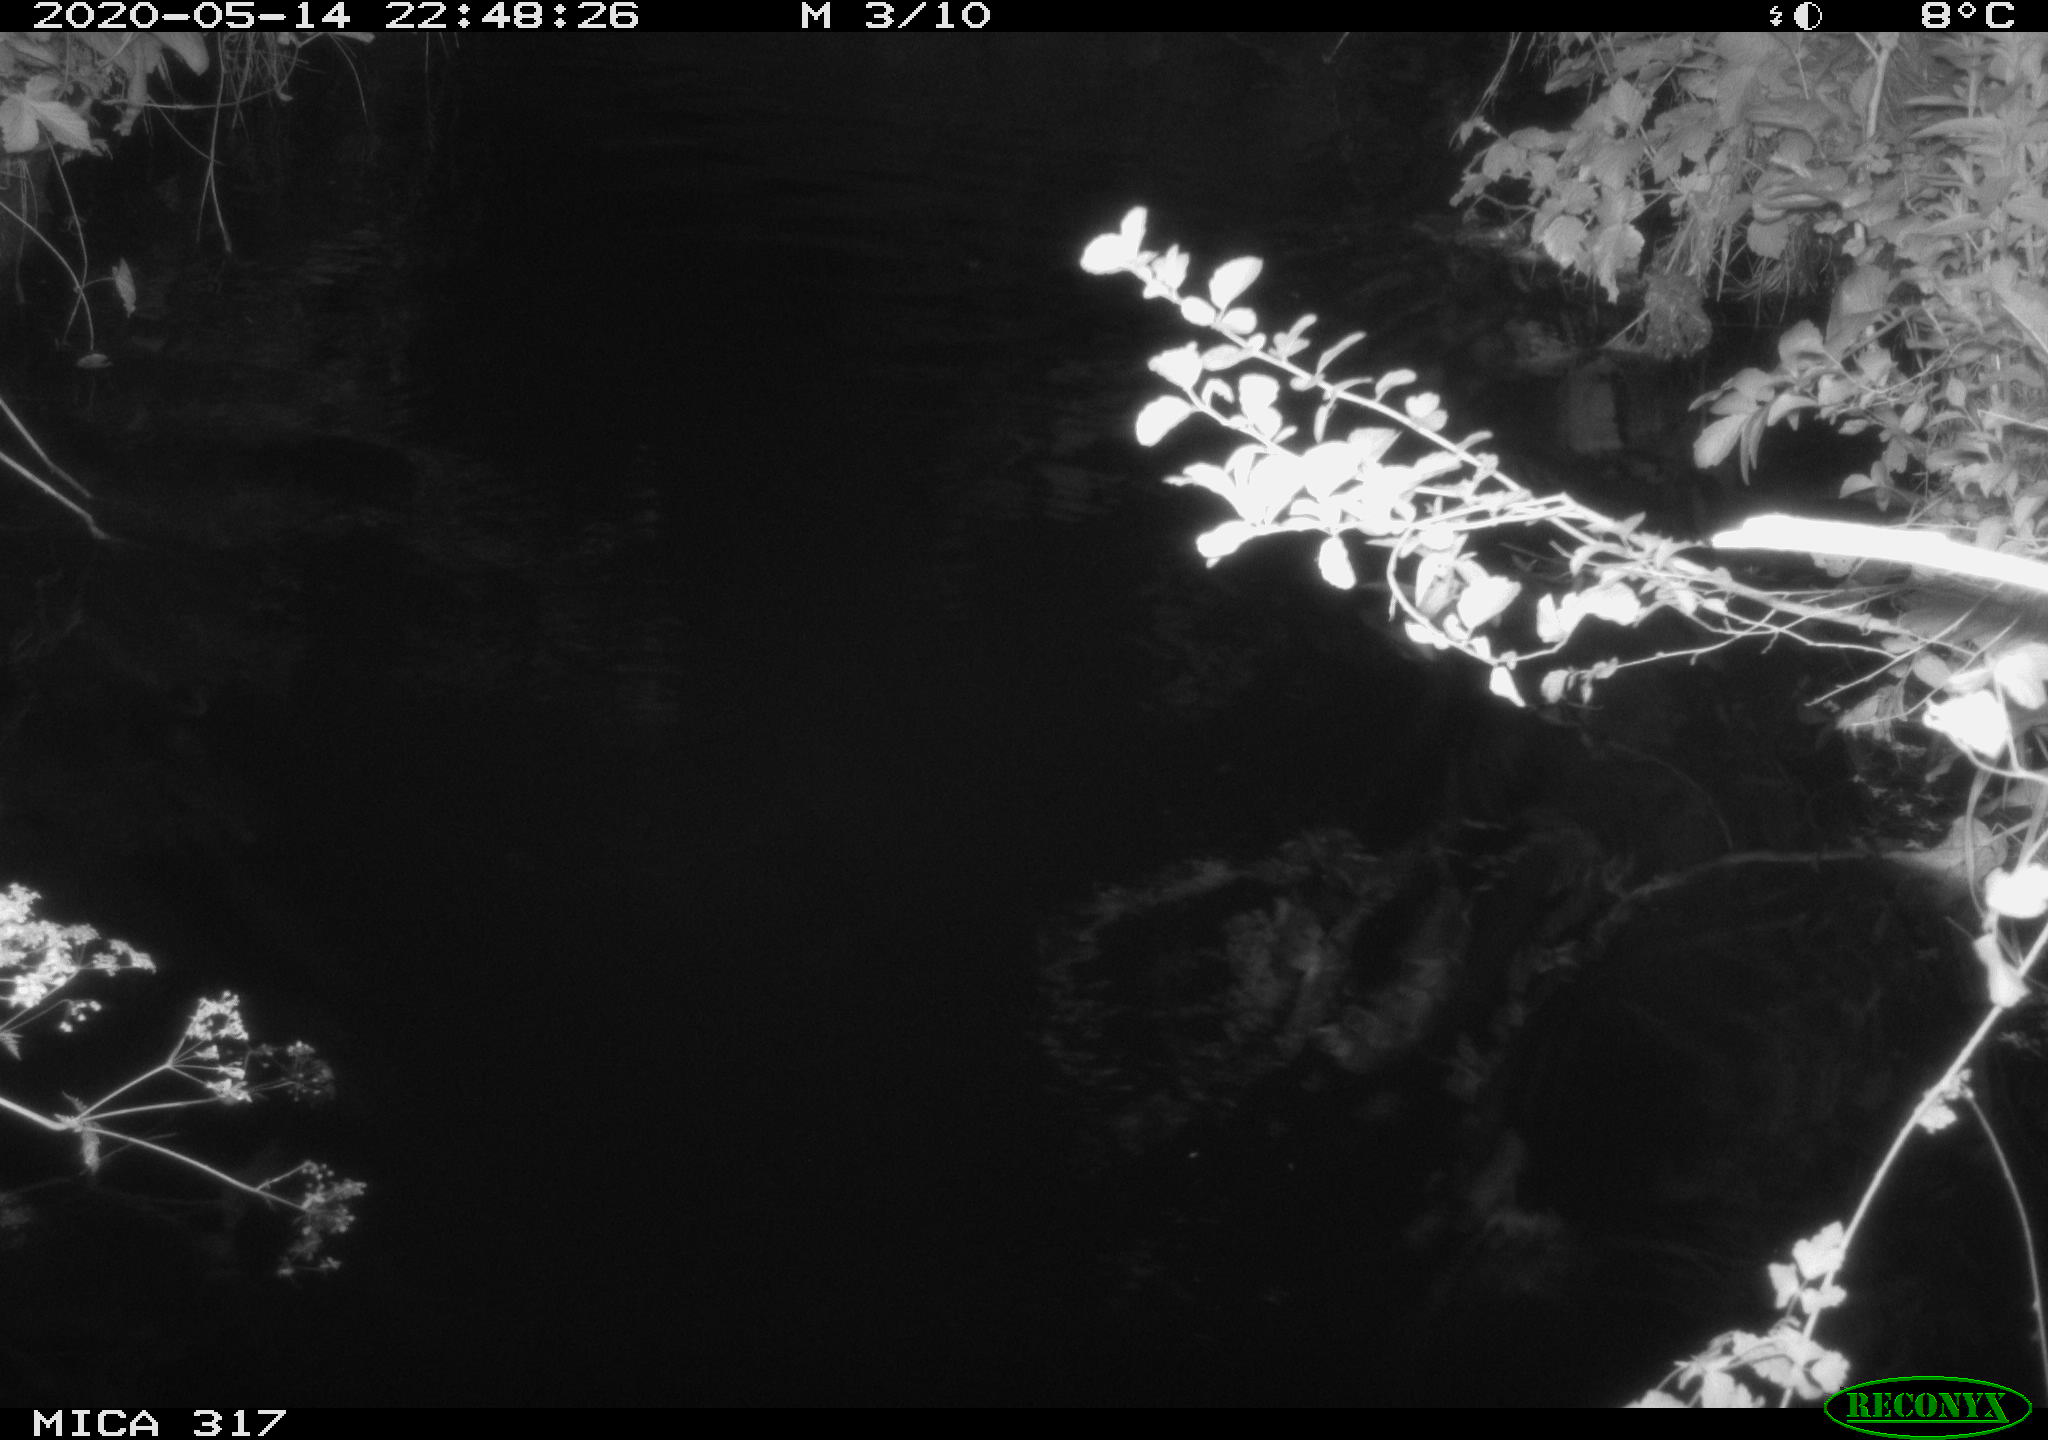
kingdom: Animalia
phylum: Chordata
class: Aves
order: Anseriformes
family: Anatidae
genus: Anas
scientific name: Anas platyrhynchos
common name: Mallard
